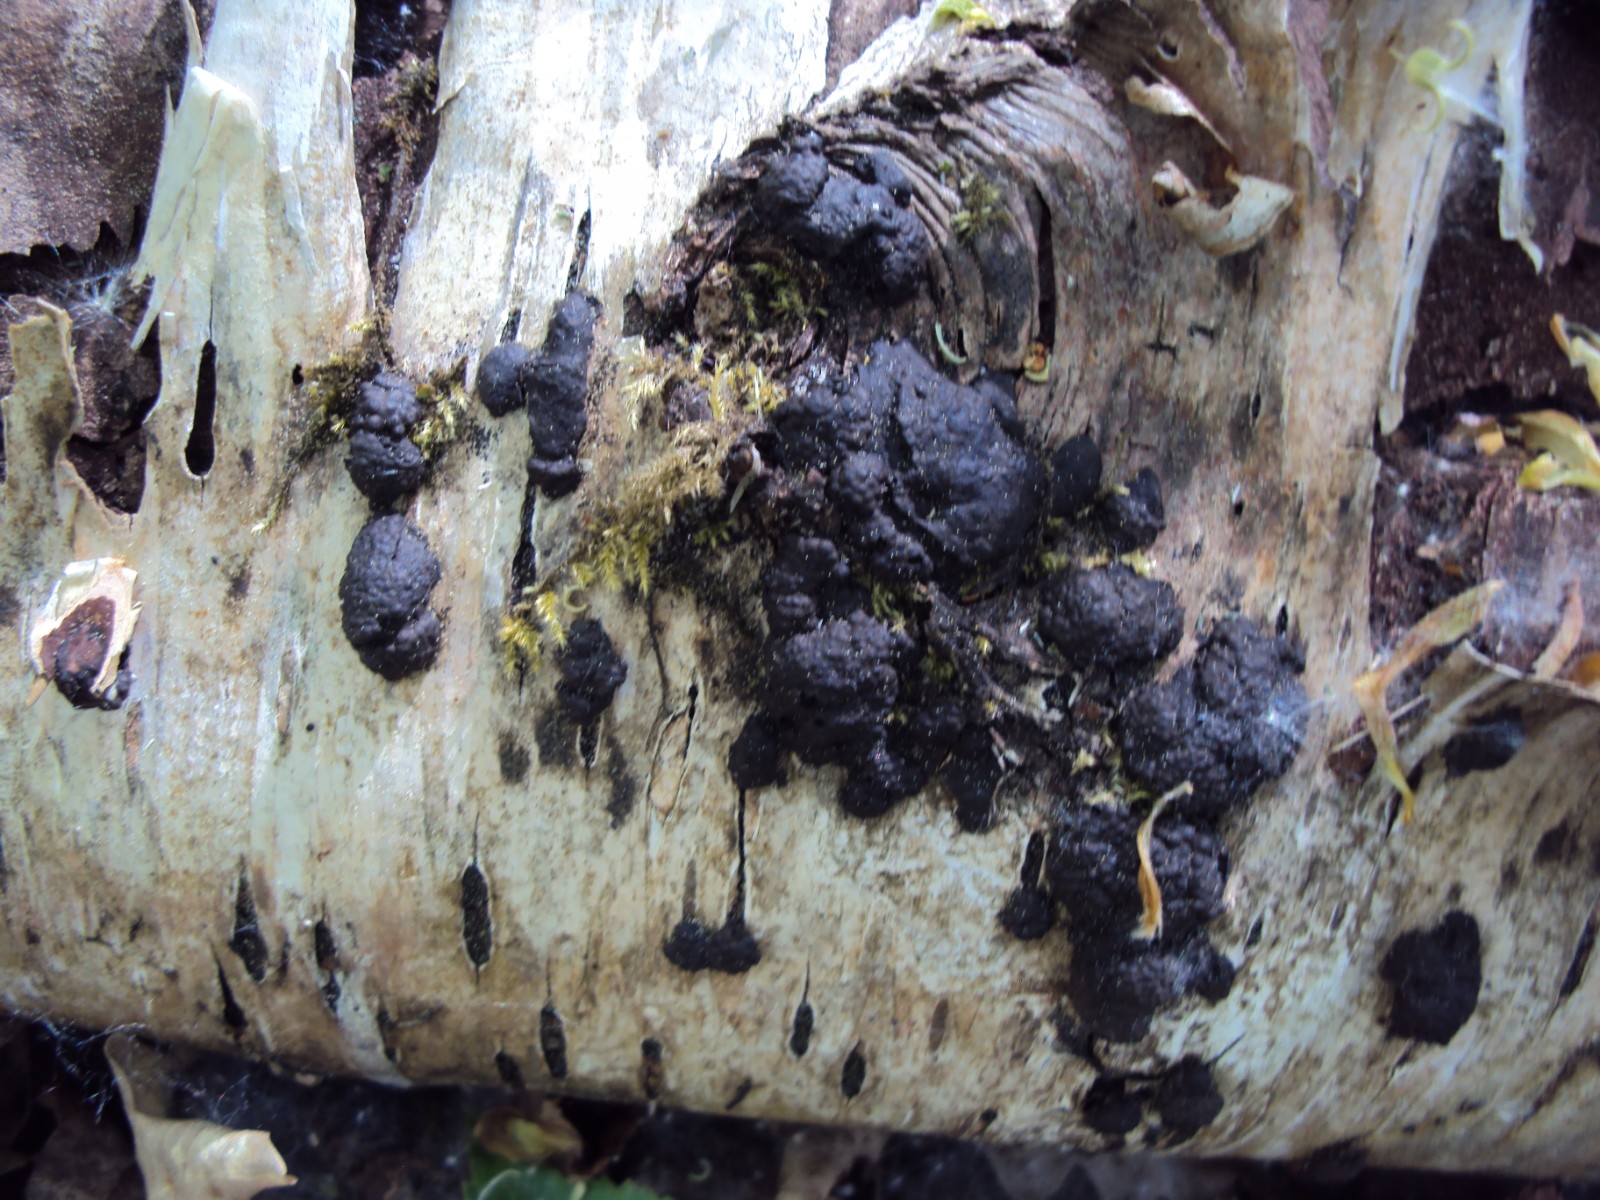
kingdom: Fungi
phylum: Ascomycota
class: Sordariomycetes
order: Xylariales
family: Hypoxylaceae
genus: Jackrogersella
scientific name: Jackrogersella multiformis
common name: foranderlig kulbær
